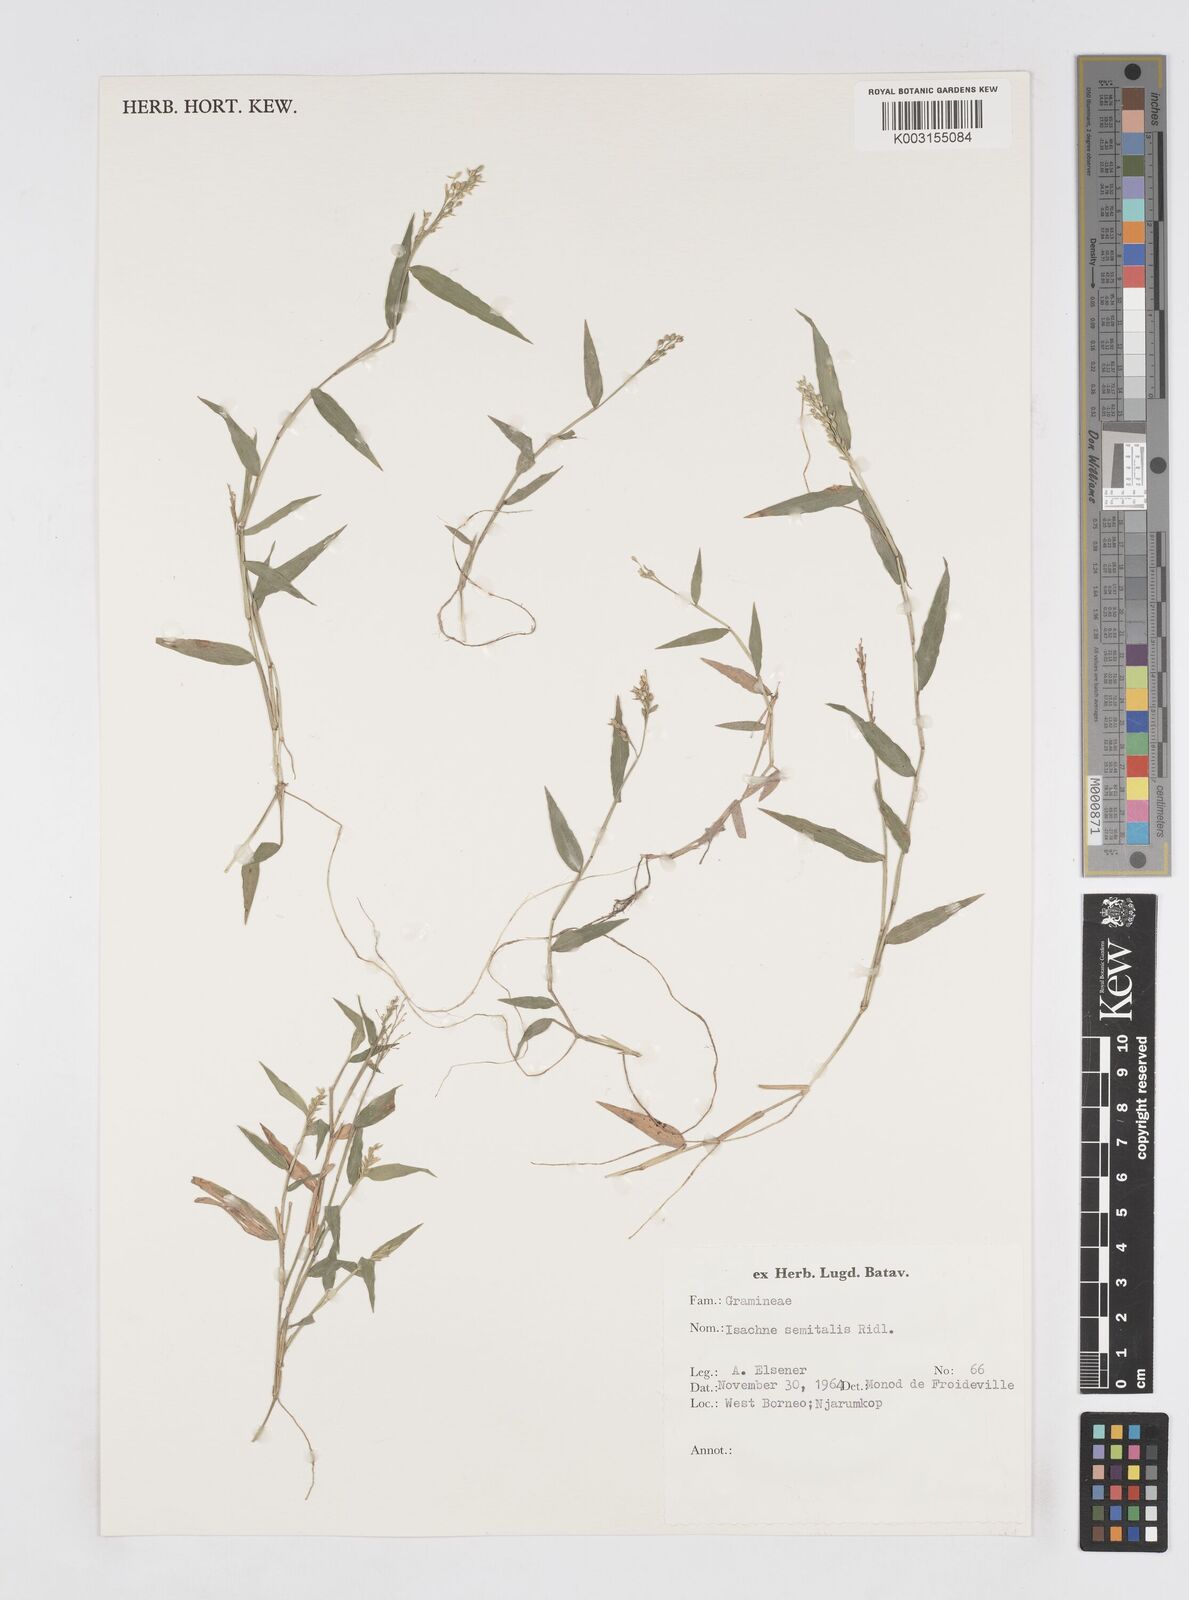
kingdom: Plantae
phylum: Tracheophyta
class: Liliopsida
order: Poales
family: Poaceae
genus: Isachne
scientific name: Isachne schmidtii
